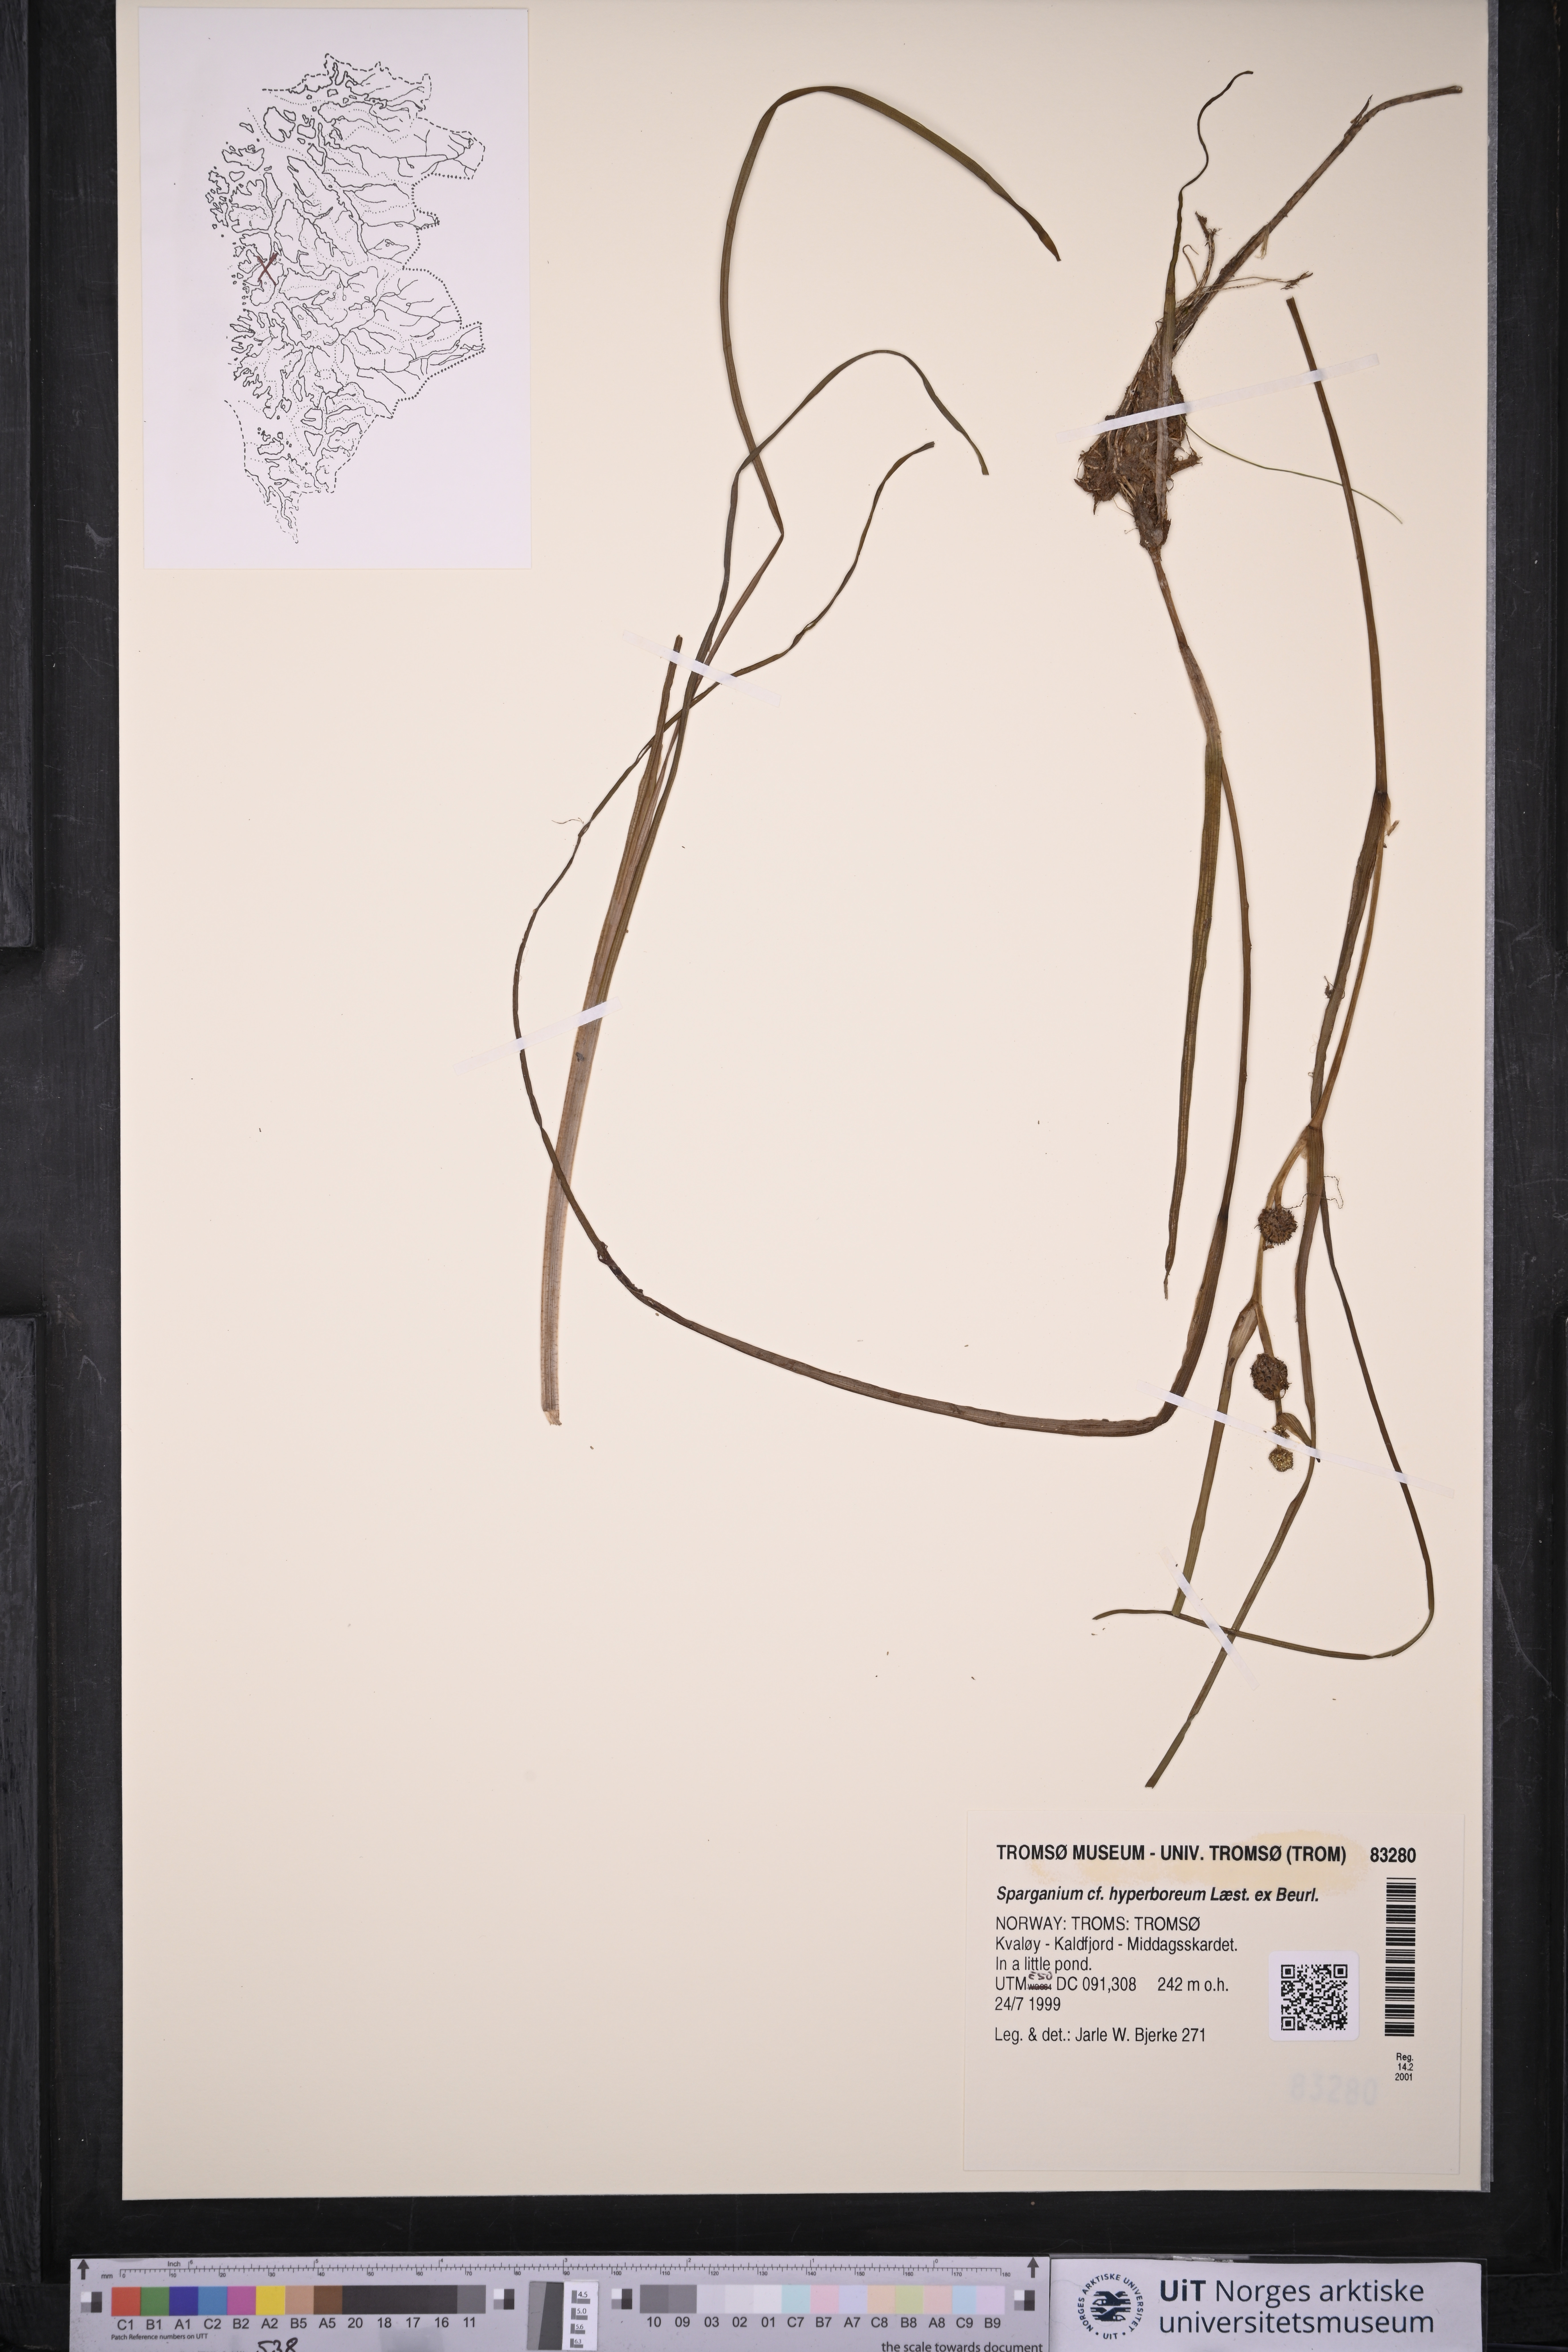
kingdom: Plantae
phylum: Tracheophyta
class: Liliopsida
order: Poales
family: Typhaceae
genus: Sparganium
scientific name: Sparganium hyperboreum
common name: Arctic burreed
